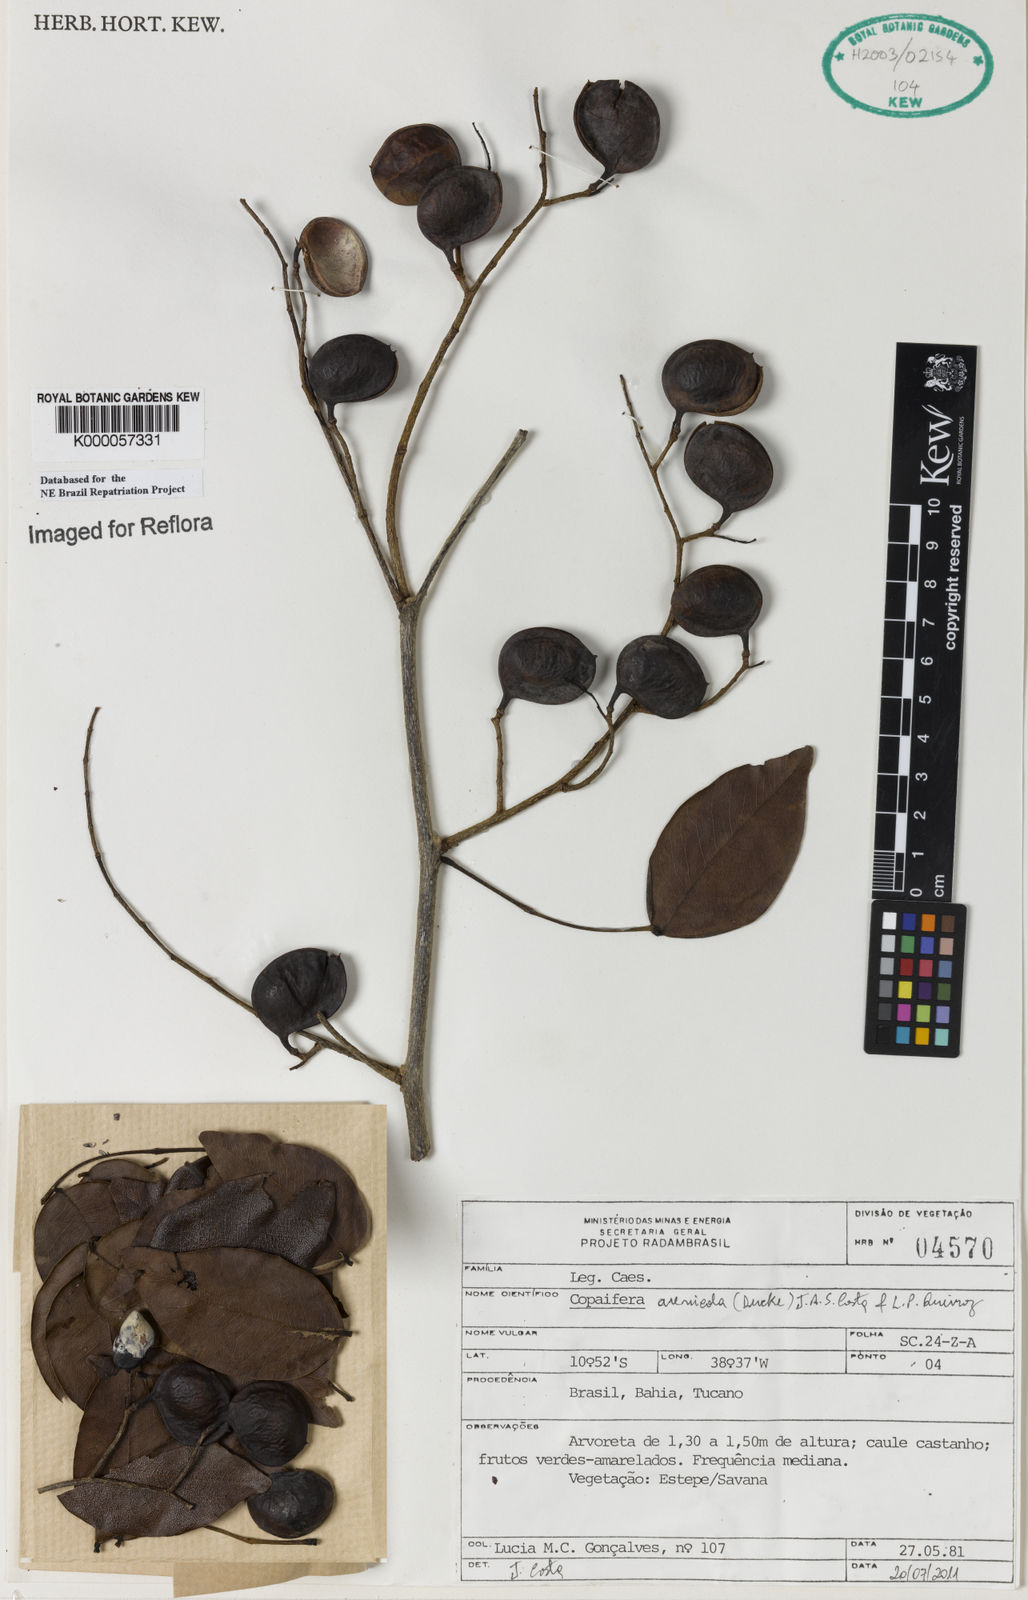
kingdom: Plantae
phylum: Tracheophyta
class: Magnoliopsida
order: Fabales
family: Fabaceae
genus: Copaifera
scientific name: Copaifera duckei
